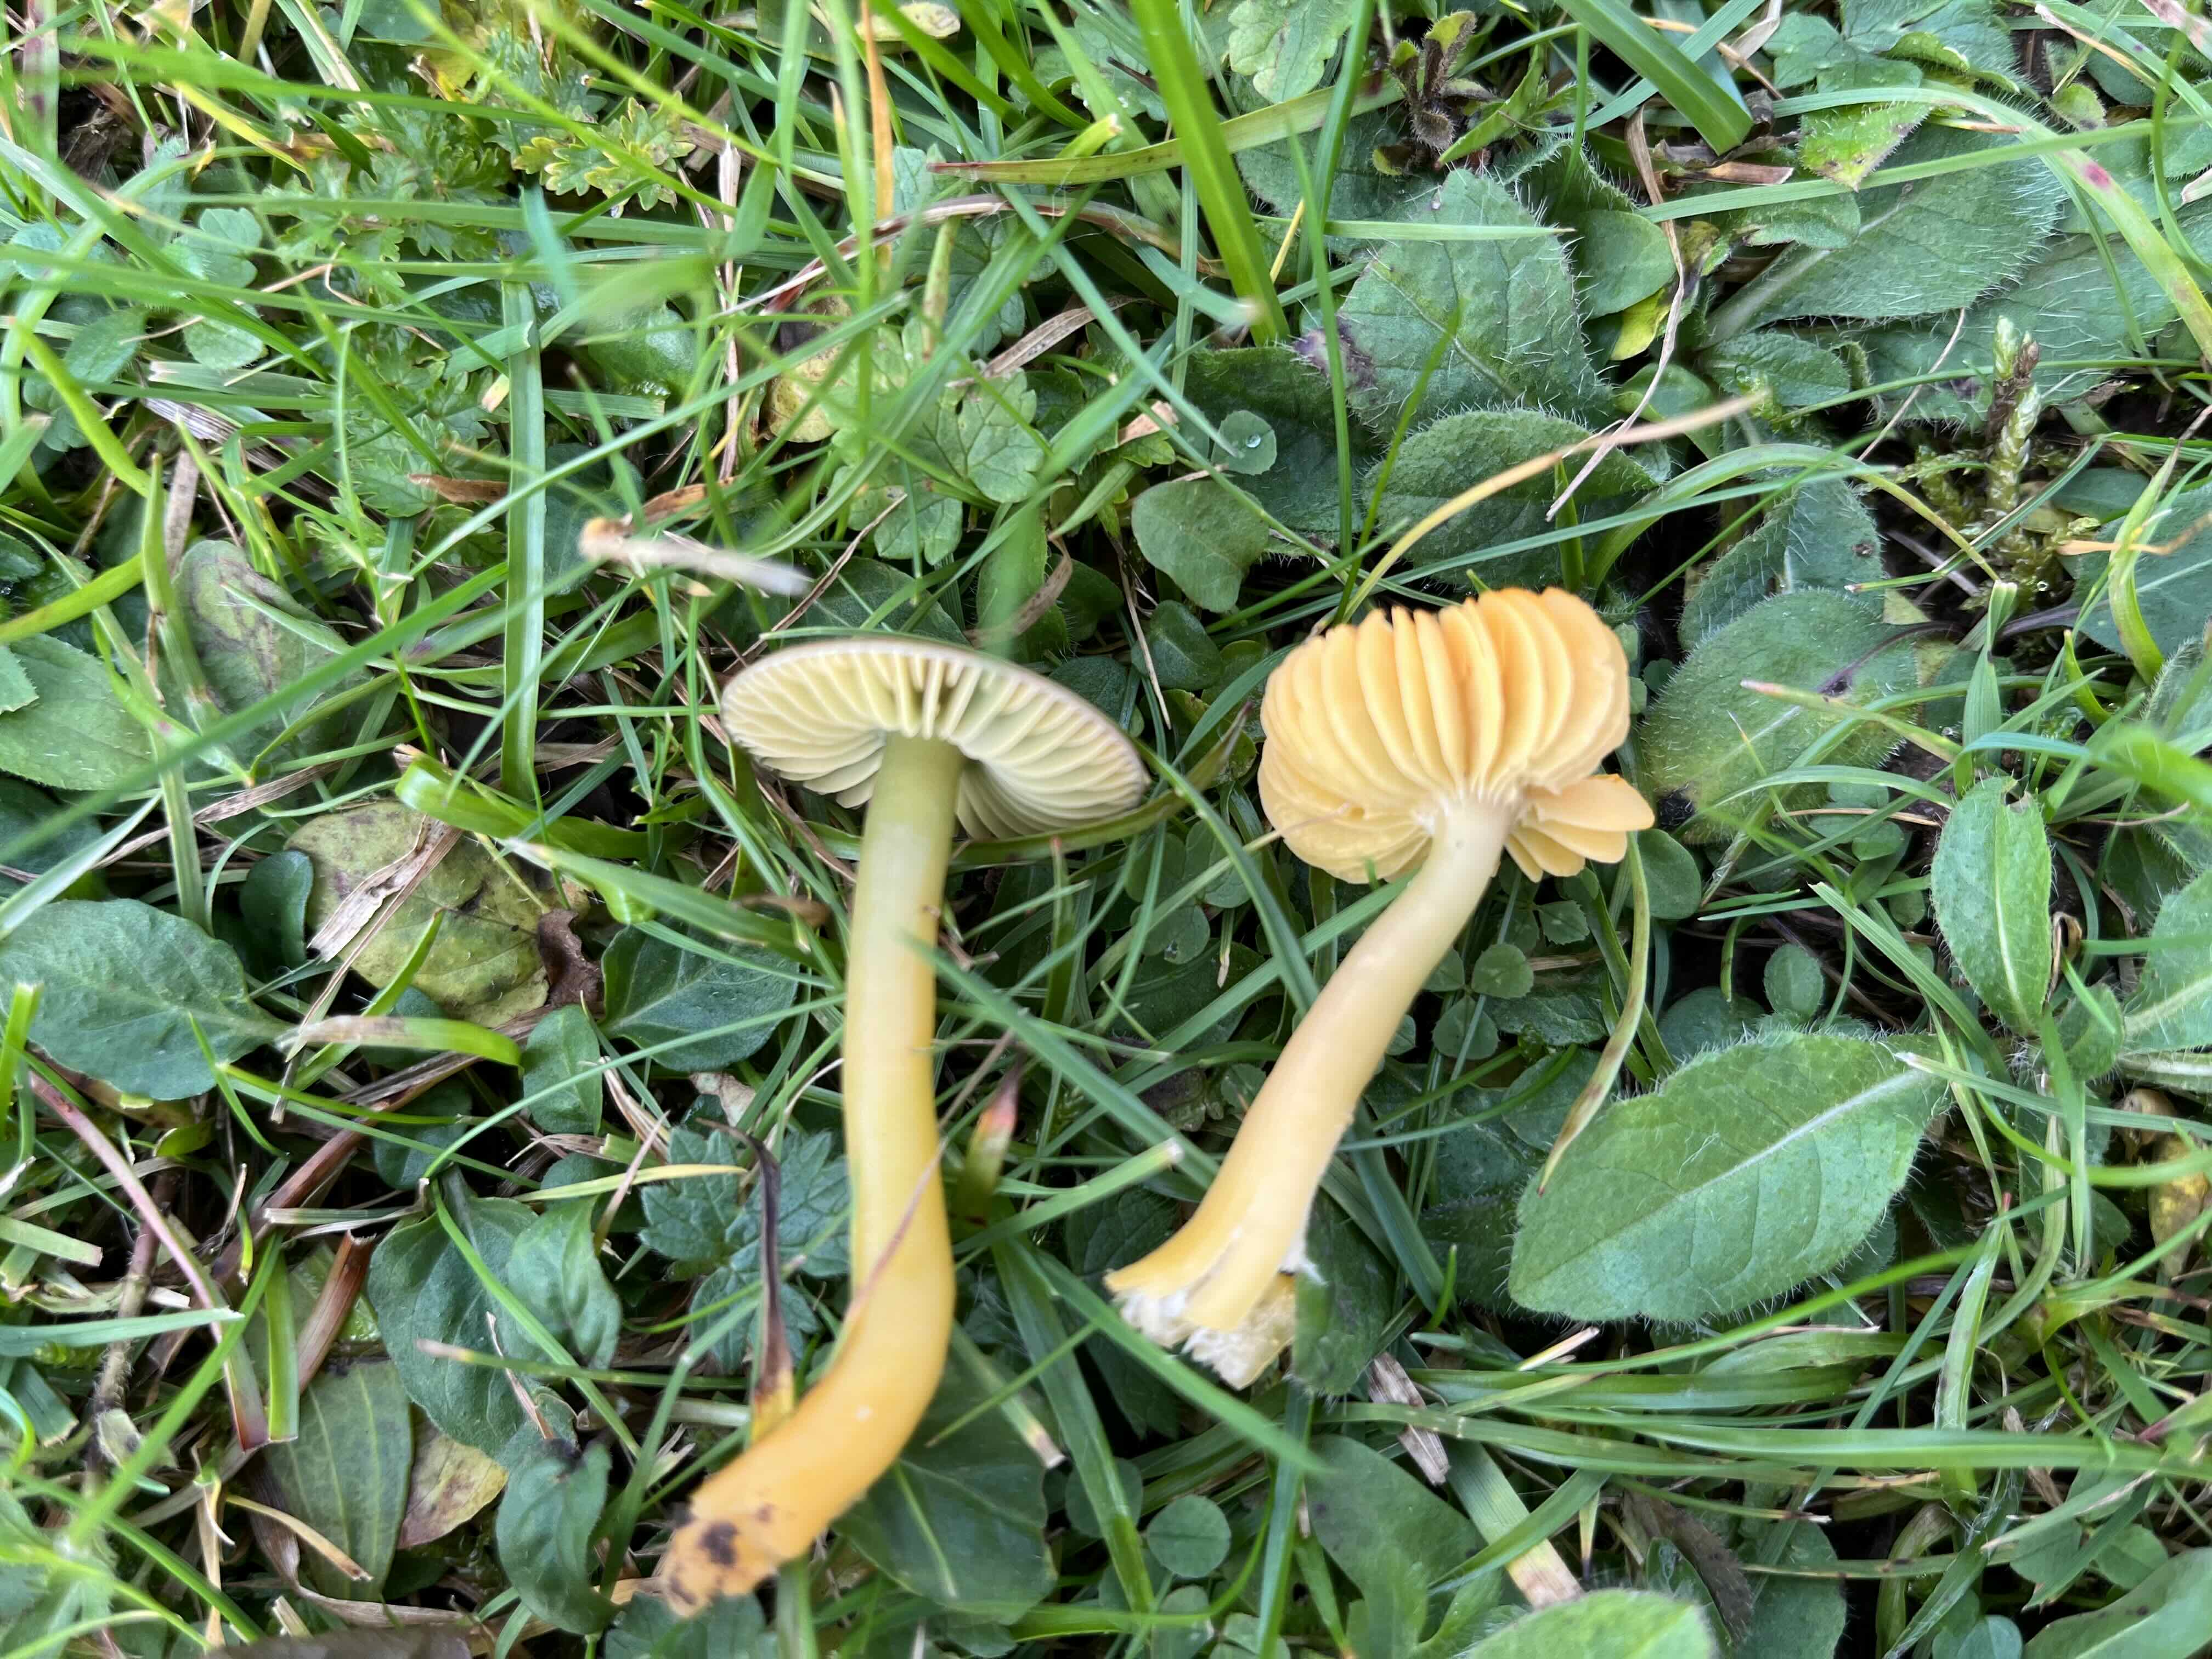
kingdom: Fungi
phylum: Basidiomycota
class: Agaricomycetes
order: Agaricales
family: Hygrophoraceae
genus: Gliophorus
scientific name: Gliophorus psittacinus
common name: papegøje-vokshat
